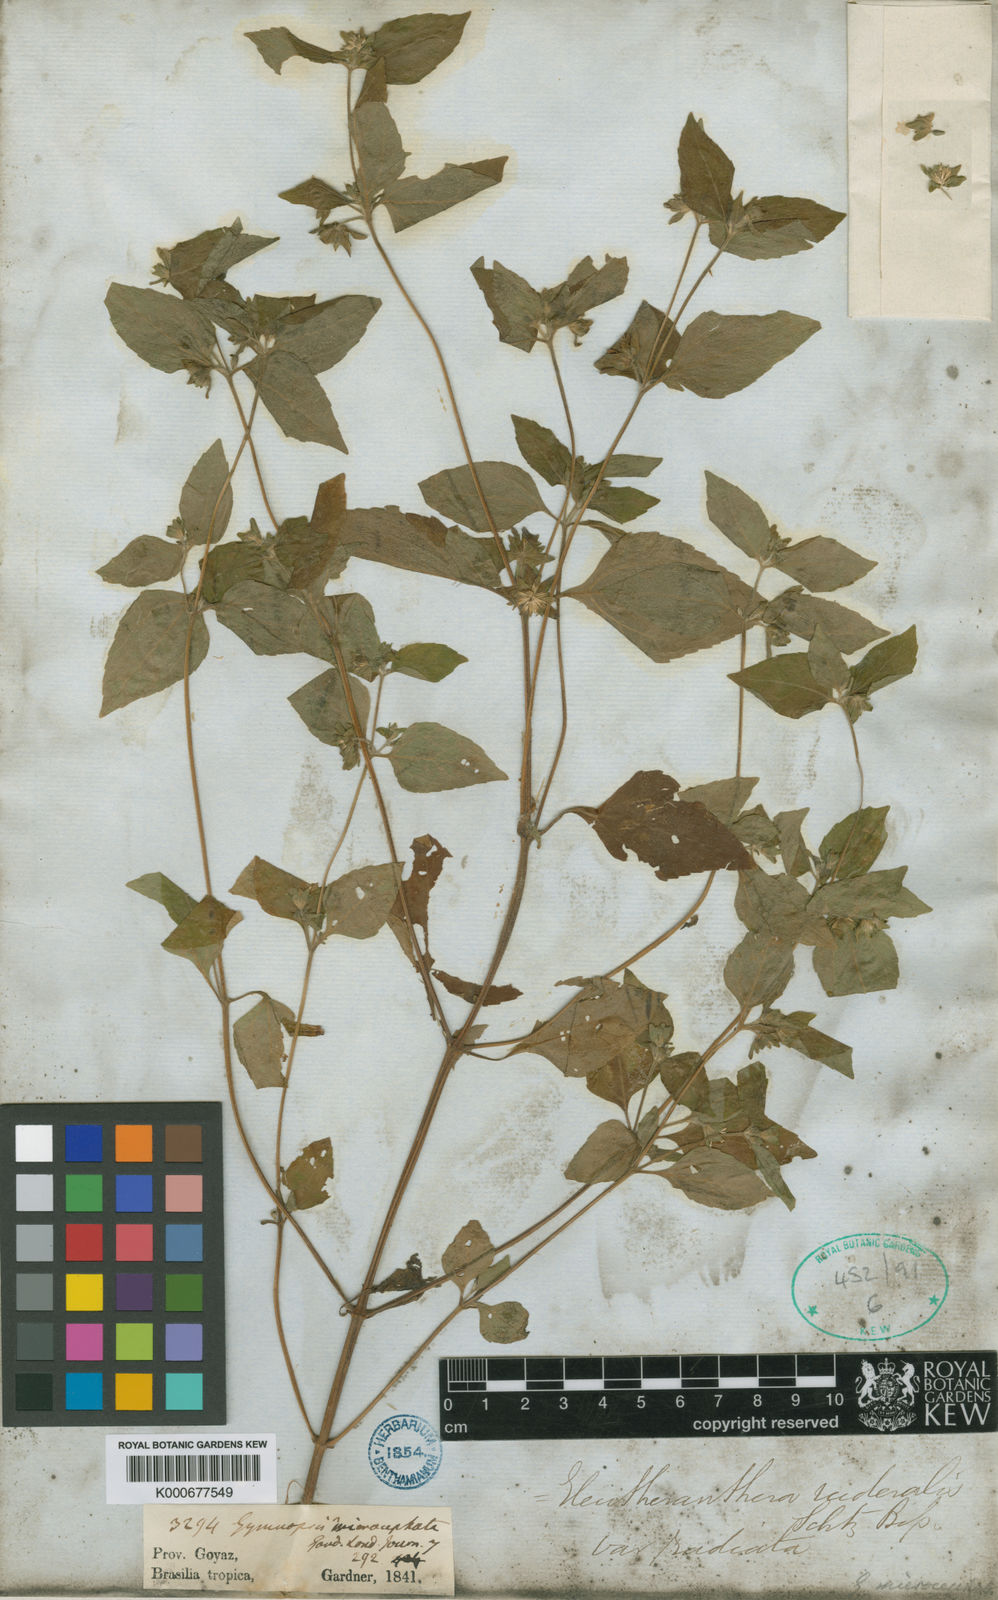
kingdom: Plantae
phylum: Tracheophyta
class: Magnoliopsida
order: Asterales
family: Asteraceae
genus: Eleutheranthera
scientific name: Eleutheranthera ruderalis
